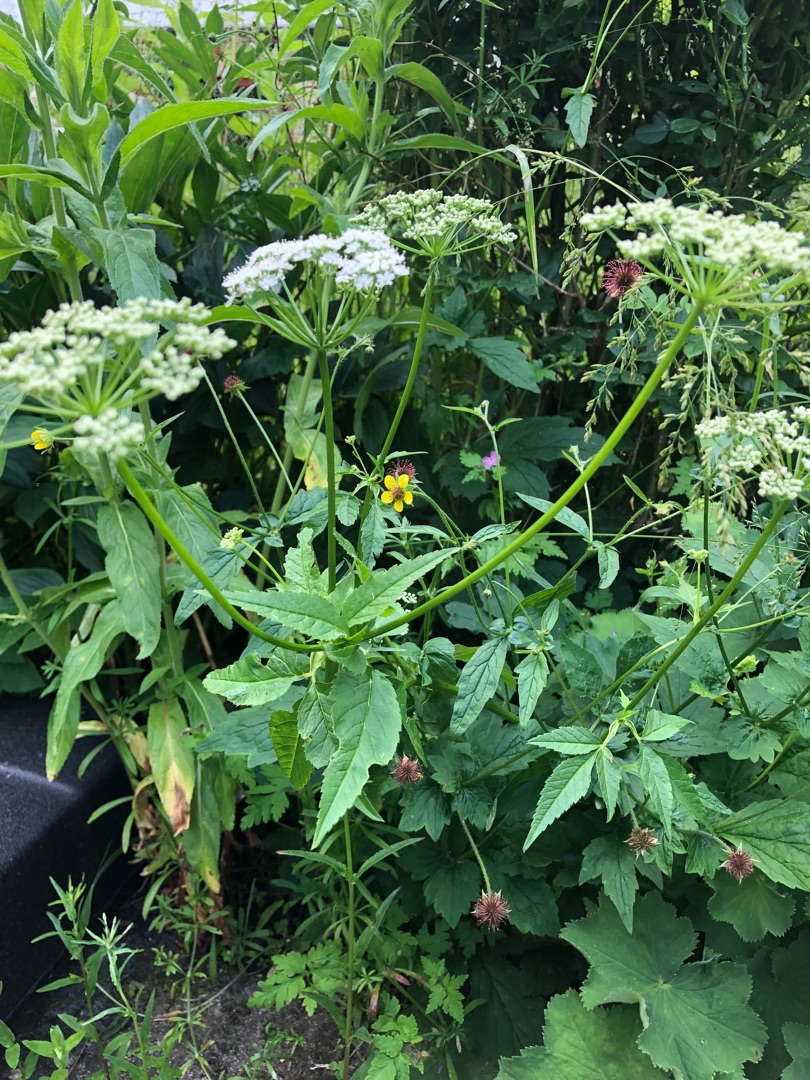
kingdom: Plantae
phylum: Tracheophyta
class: Magnoliopsida
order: Rosales
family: Rosaceae
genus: Geum
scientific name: Geum urbanum
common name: Feber-nellikerod
